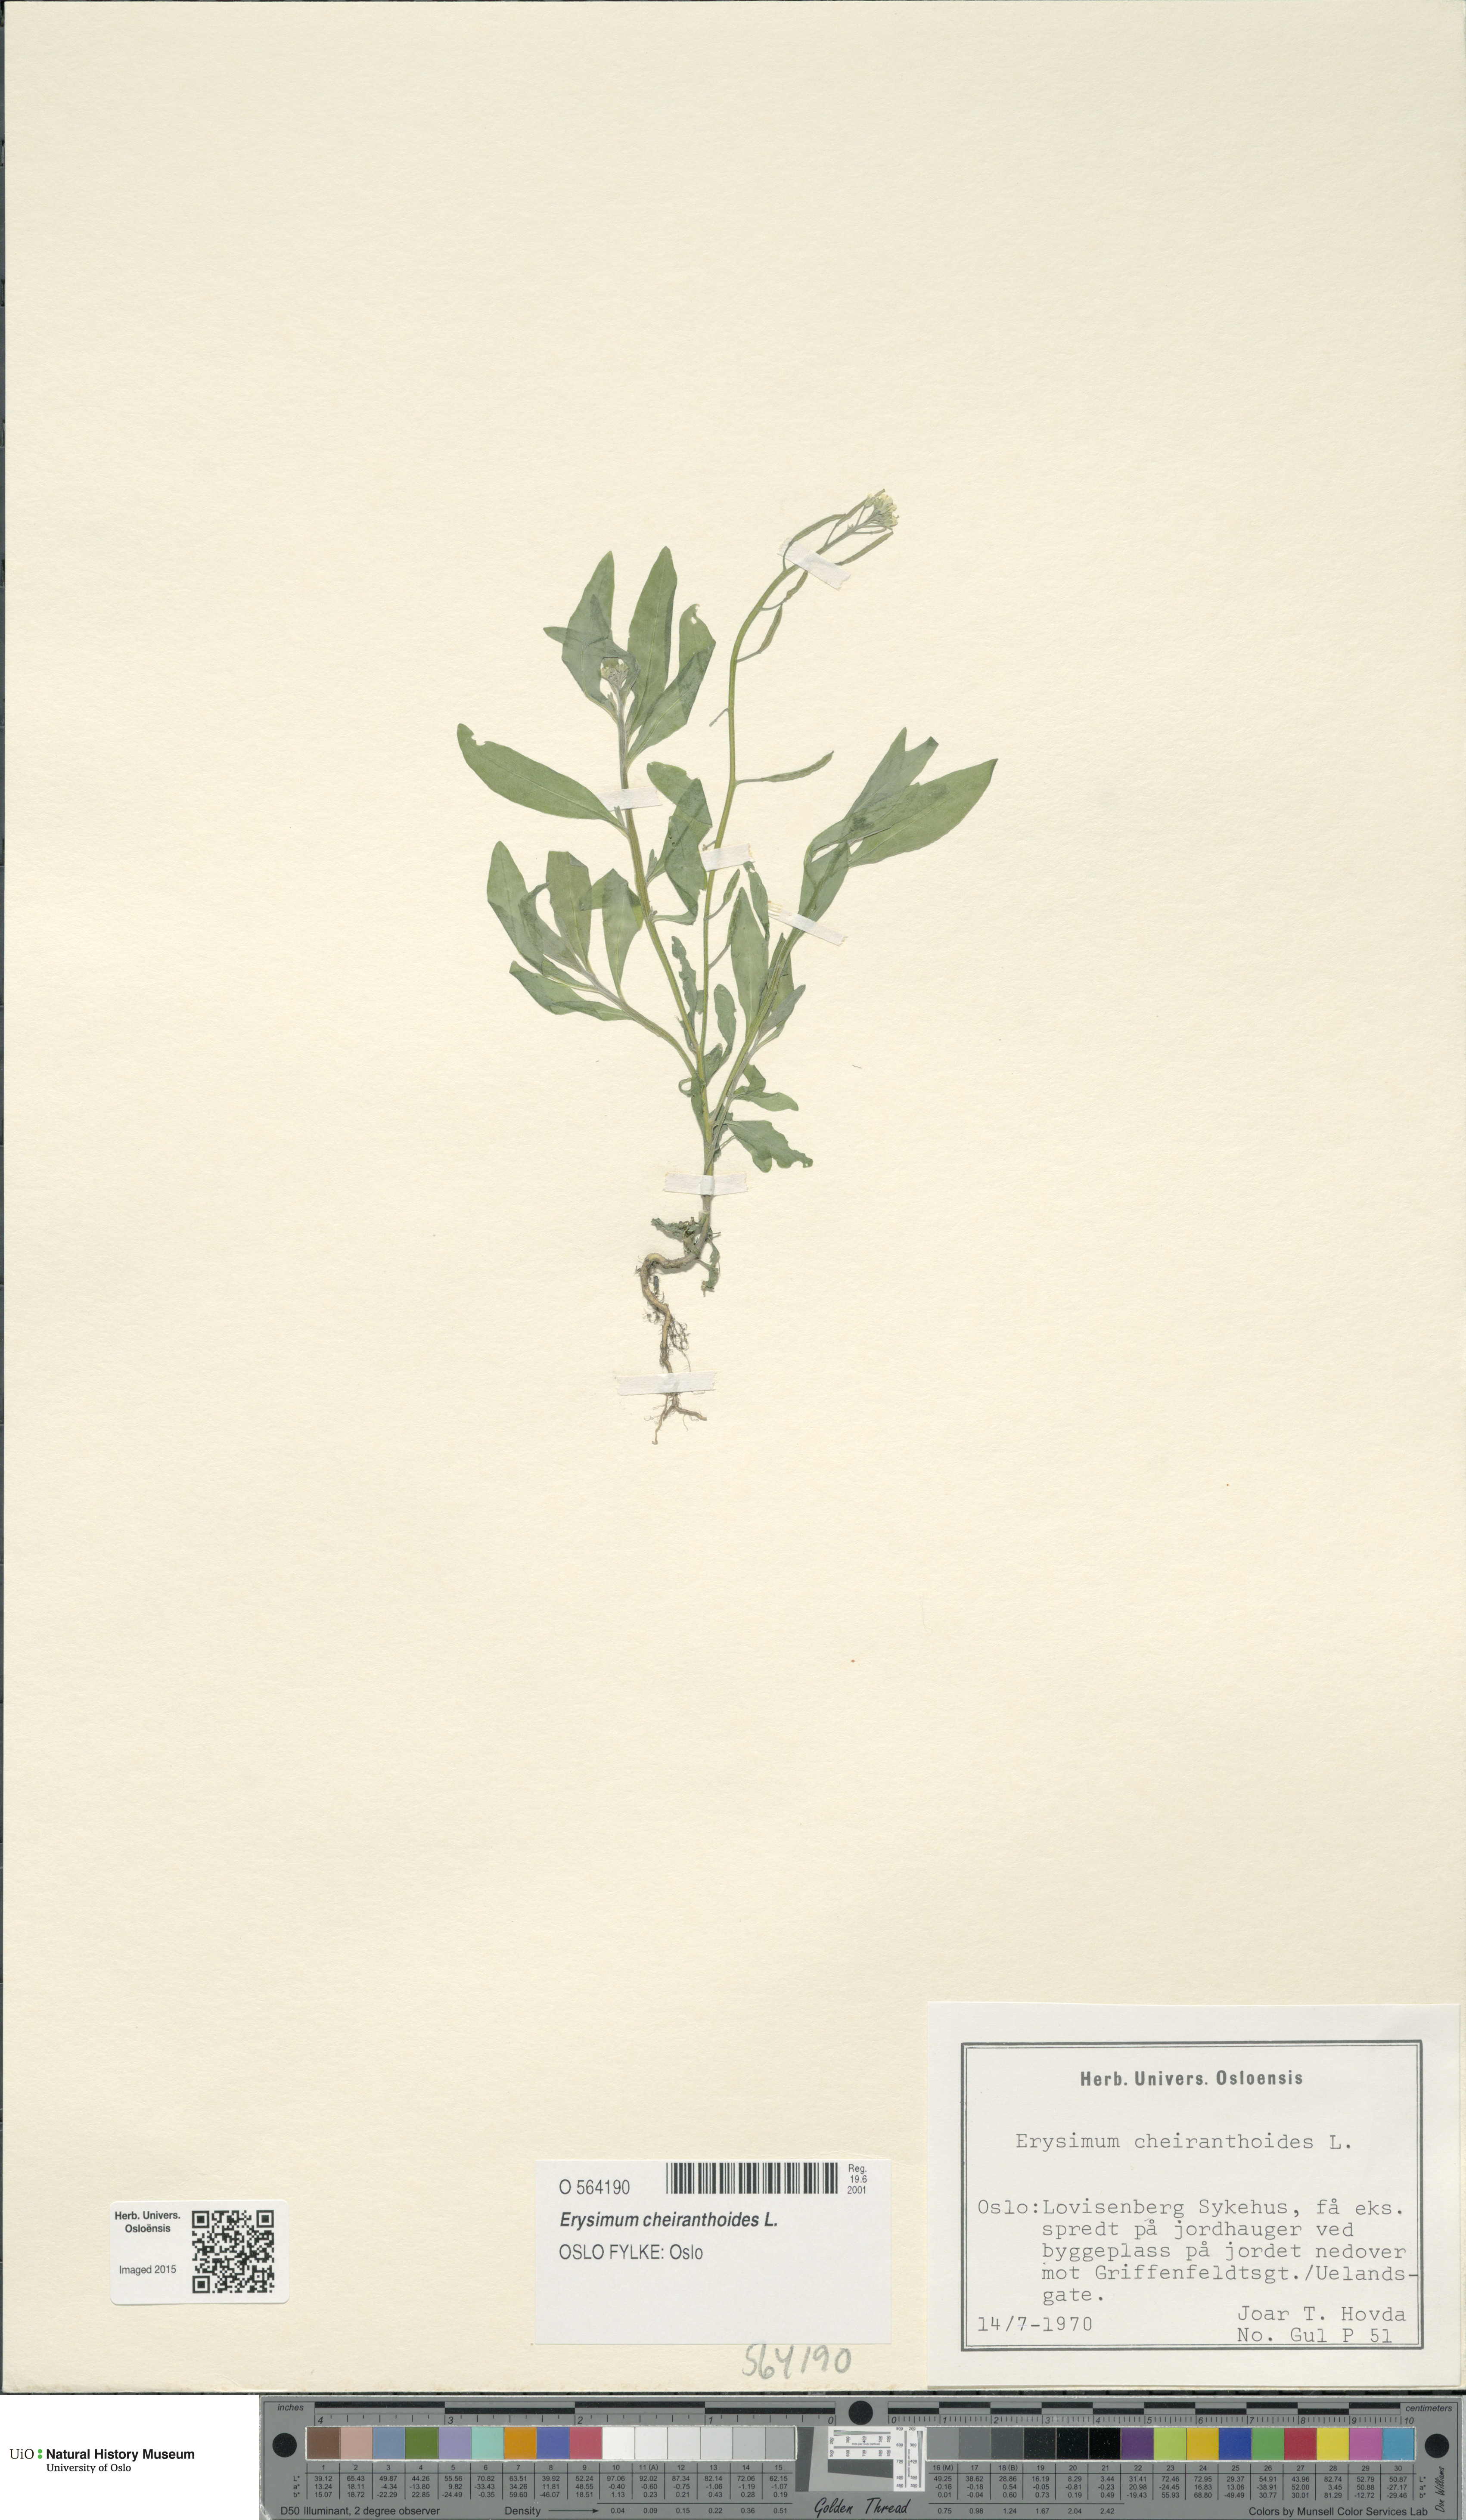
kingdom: Plantae
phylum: Tracheophyta
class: Magnoliopsida
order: Brassicales
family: Brassicaceae
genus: Erysimum
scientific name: Erysimum cheiranthoides
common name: Treacle mustard
